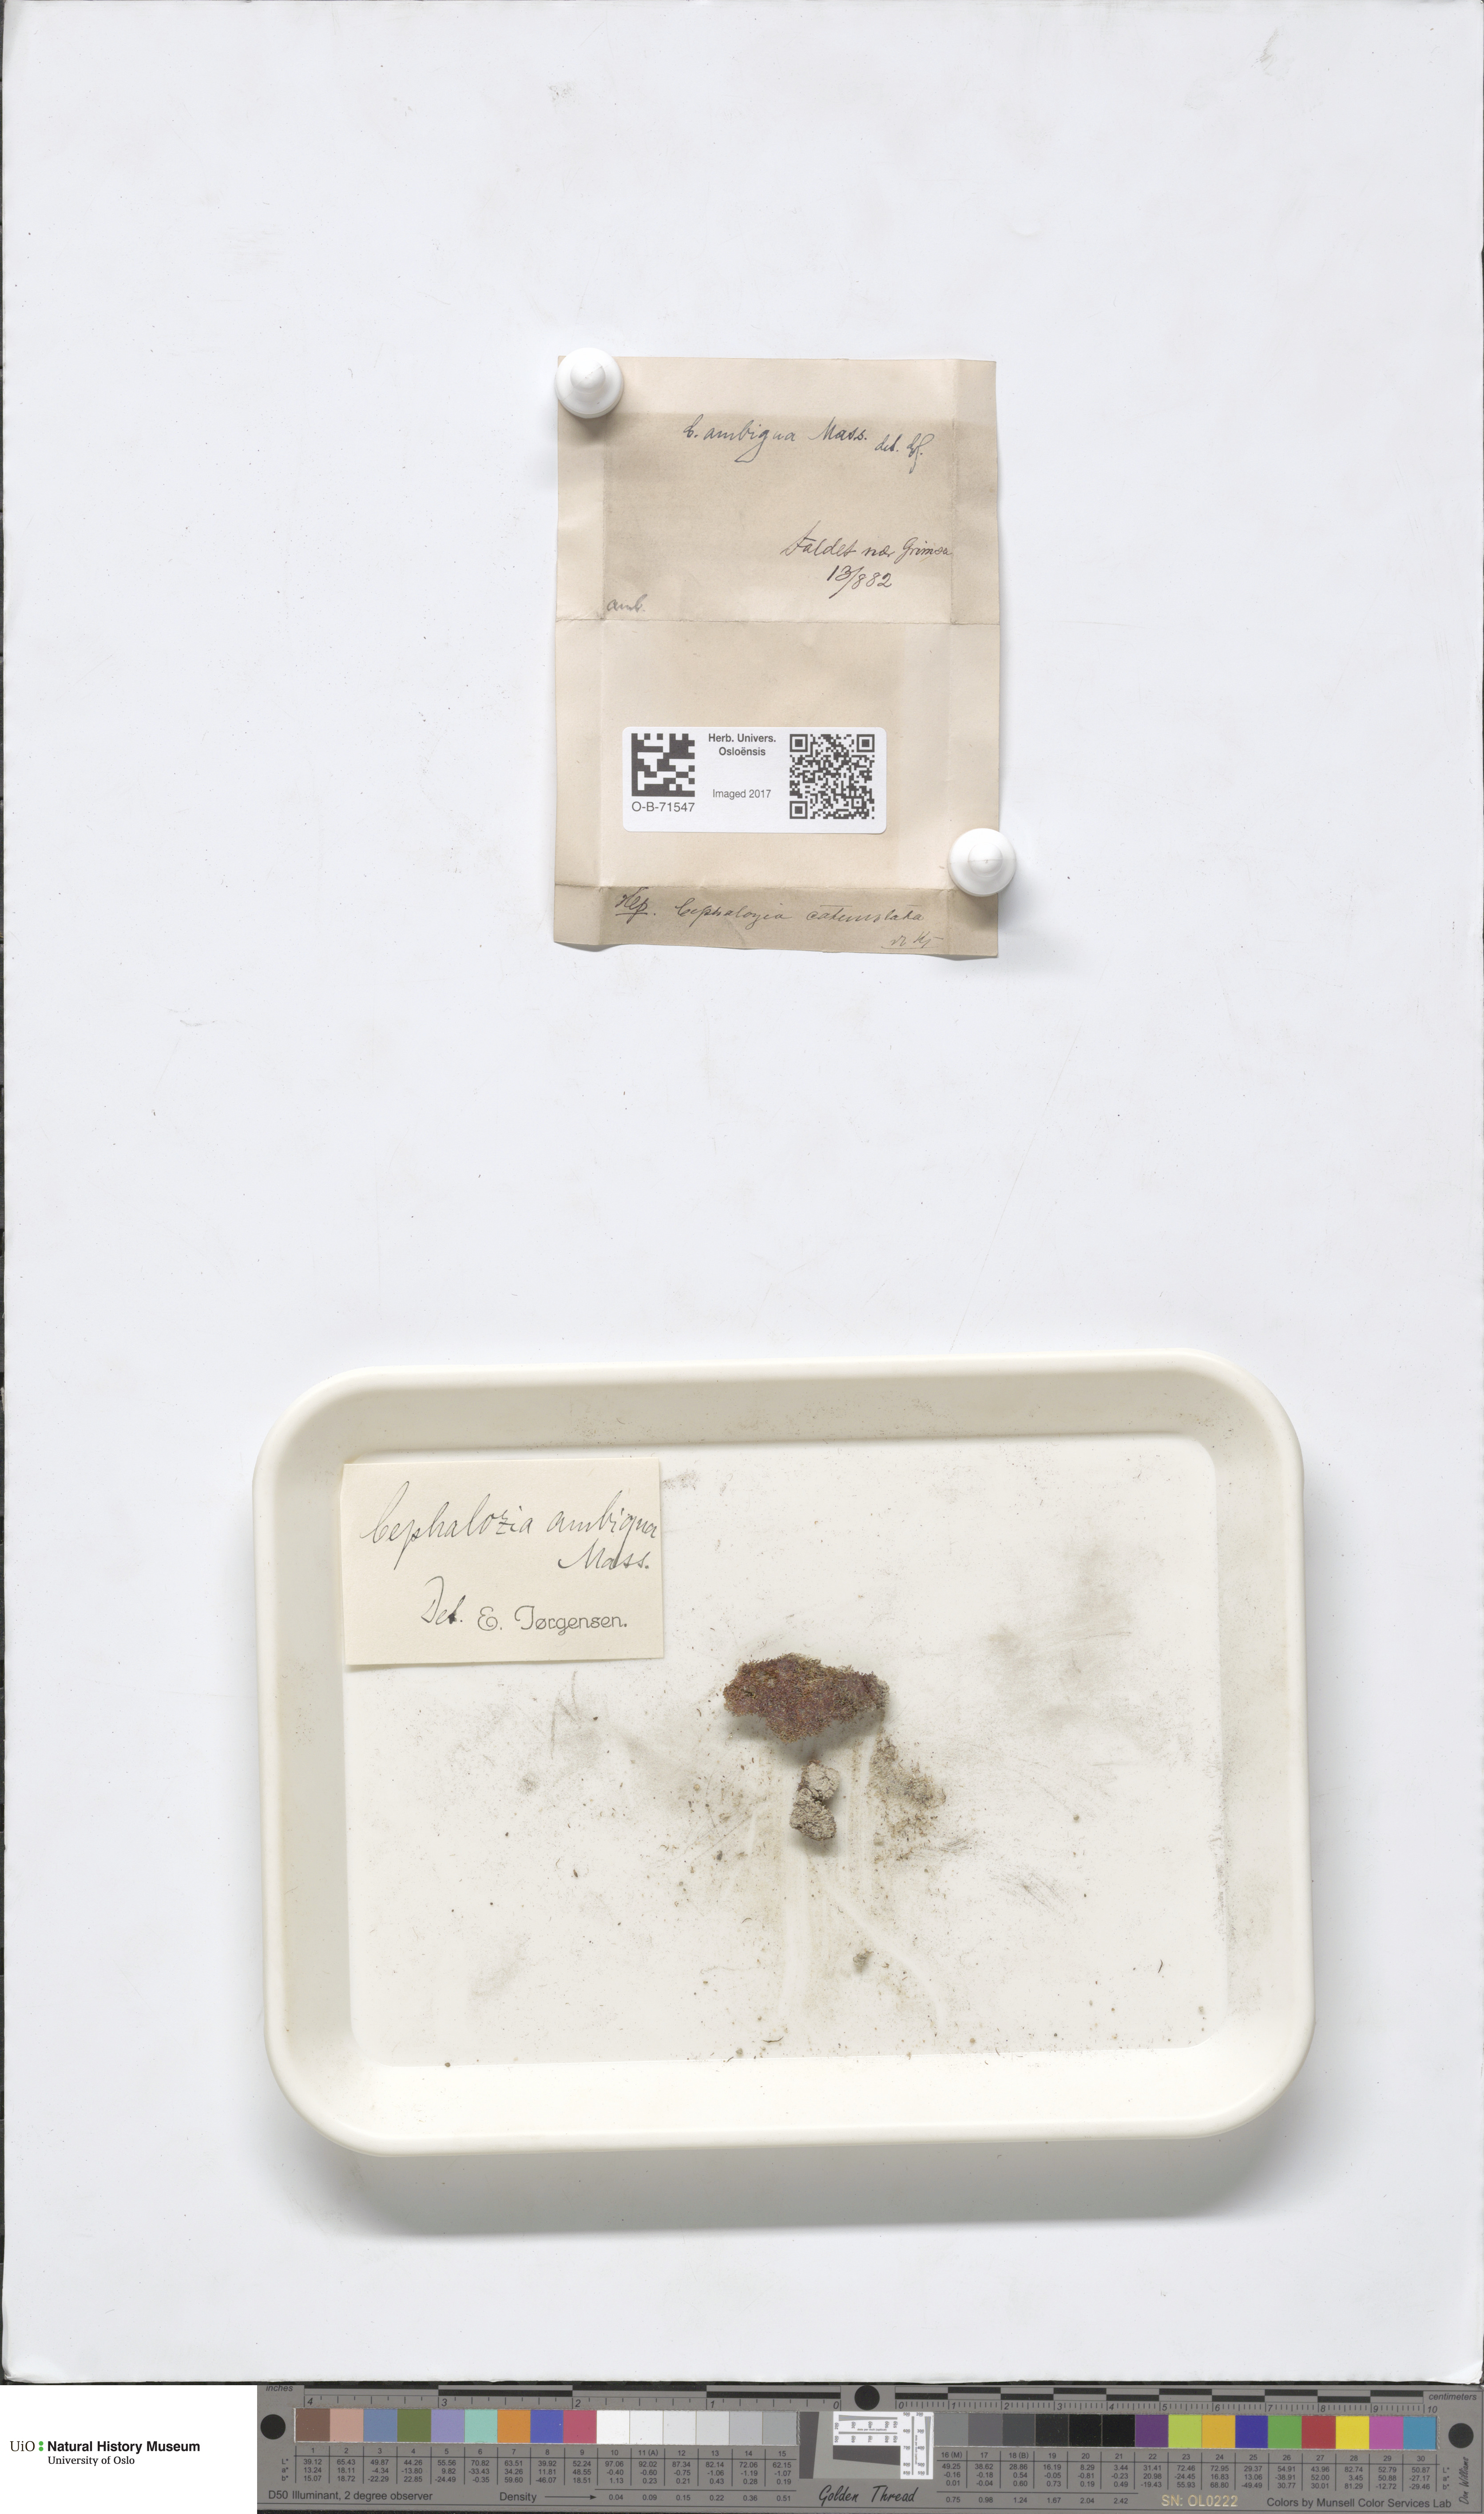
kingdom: Plantae
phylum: Marchantiophyta
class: Jungermanniopsida
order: Jungermanniales
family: Cephaloziaceae
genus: Cephalozia
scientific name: Cephalozia bicuspidata
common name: Two-horned pincerwort
